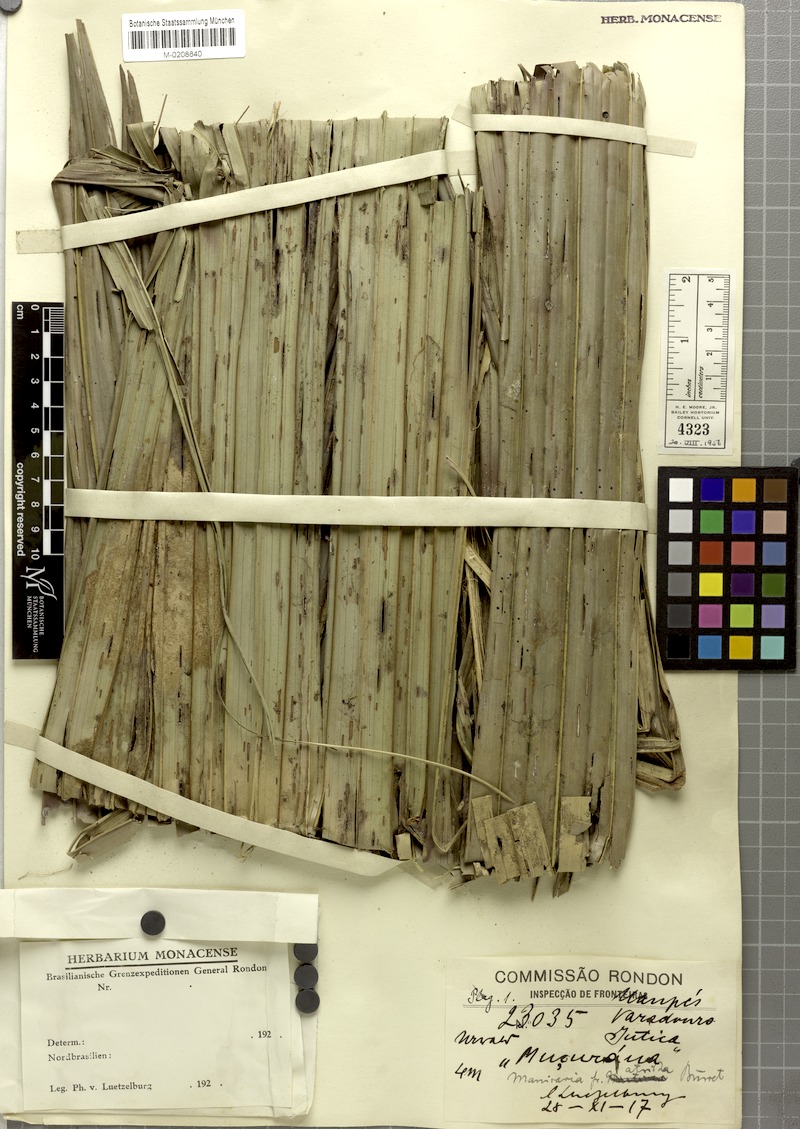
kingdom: Plantae
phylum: Tracheophyta
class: Liliopsida
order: Arecales
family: Arecaceae
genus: Manicaria
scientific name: Manicaria saccifera
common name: Sea coconut
